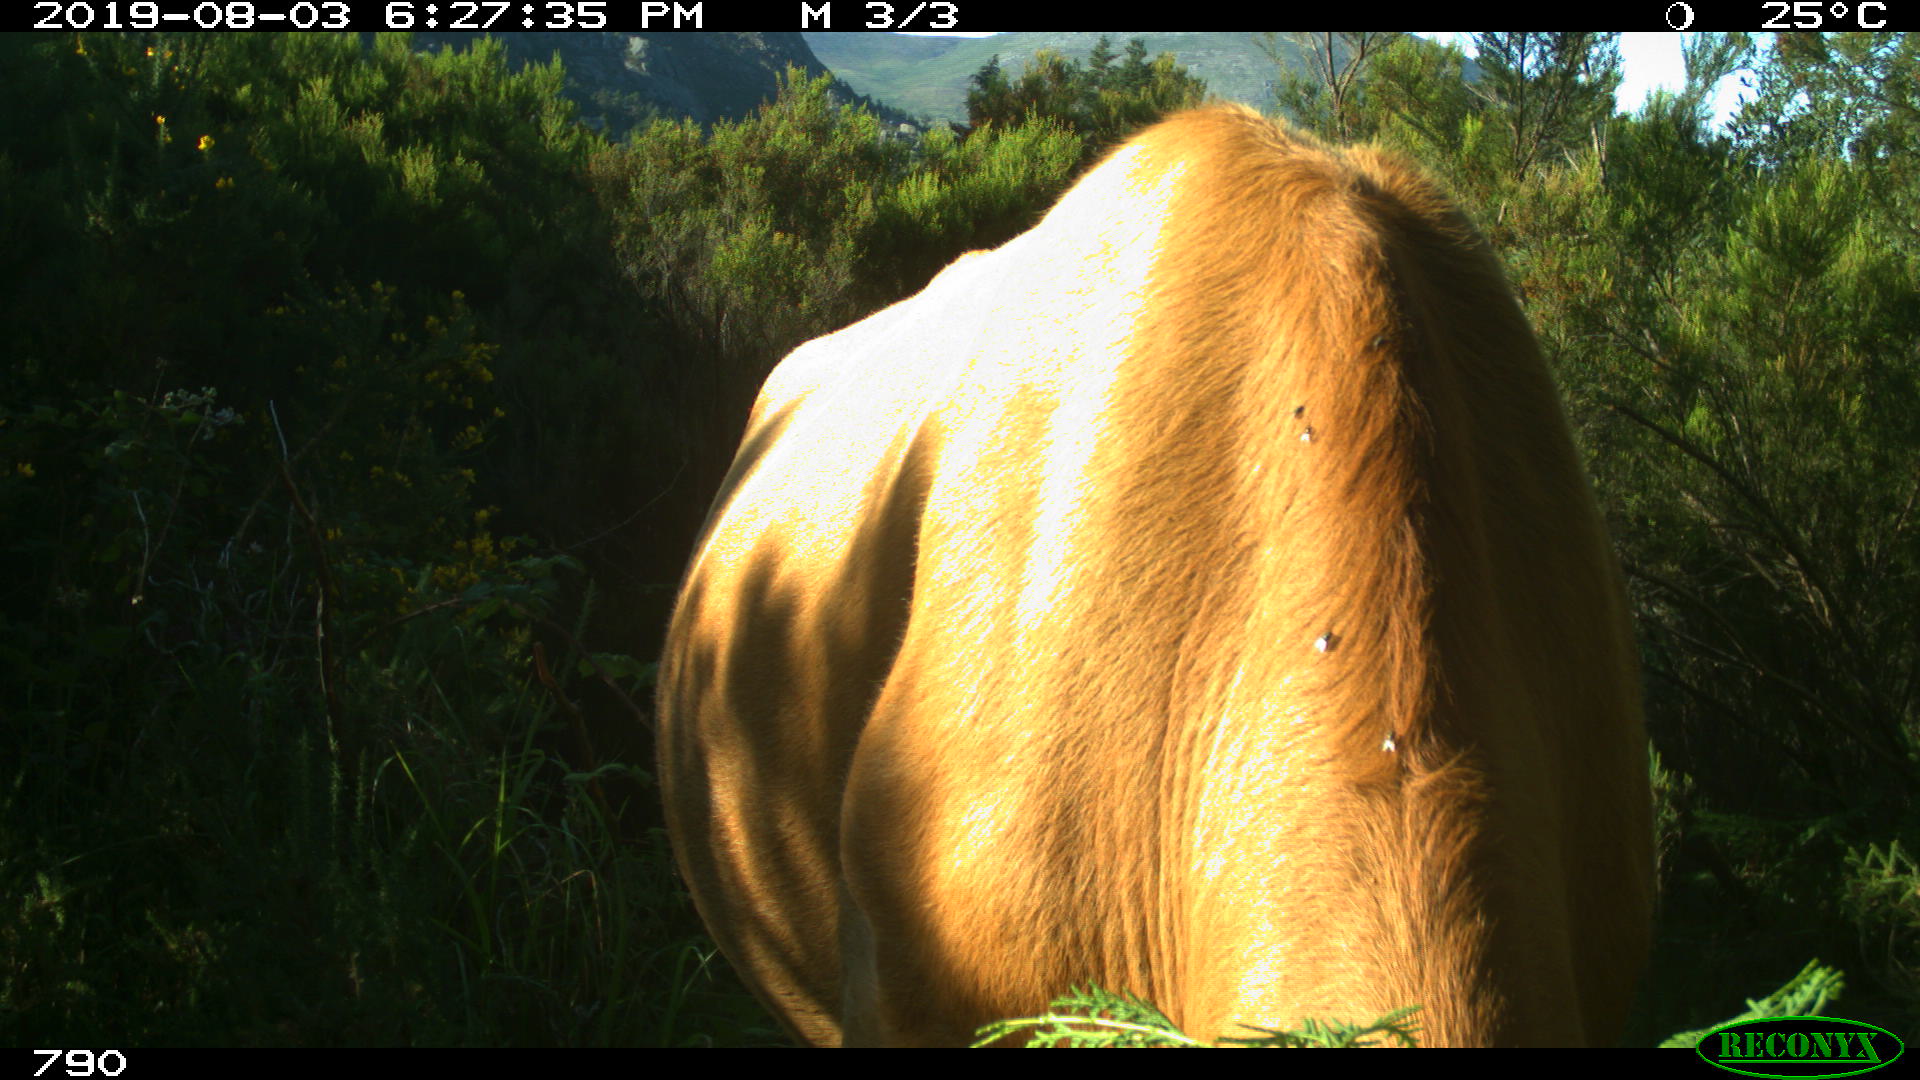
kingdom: Animalia
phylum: Chordata
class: Mammalia
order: Artiodactyla
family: Bovidae
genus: Bos
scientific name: Bos taurus
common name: Domesticated cattle
